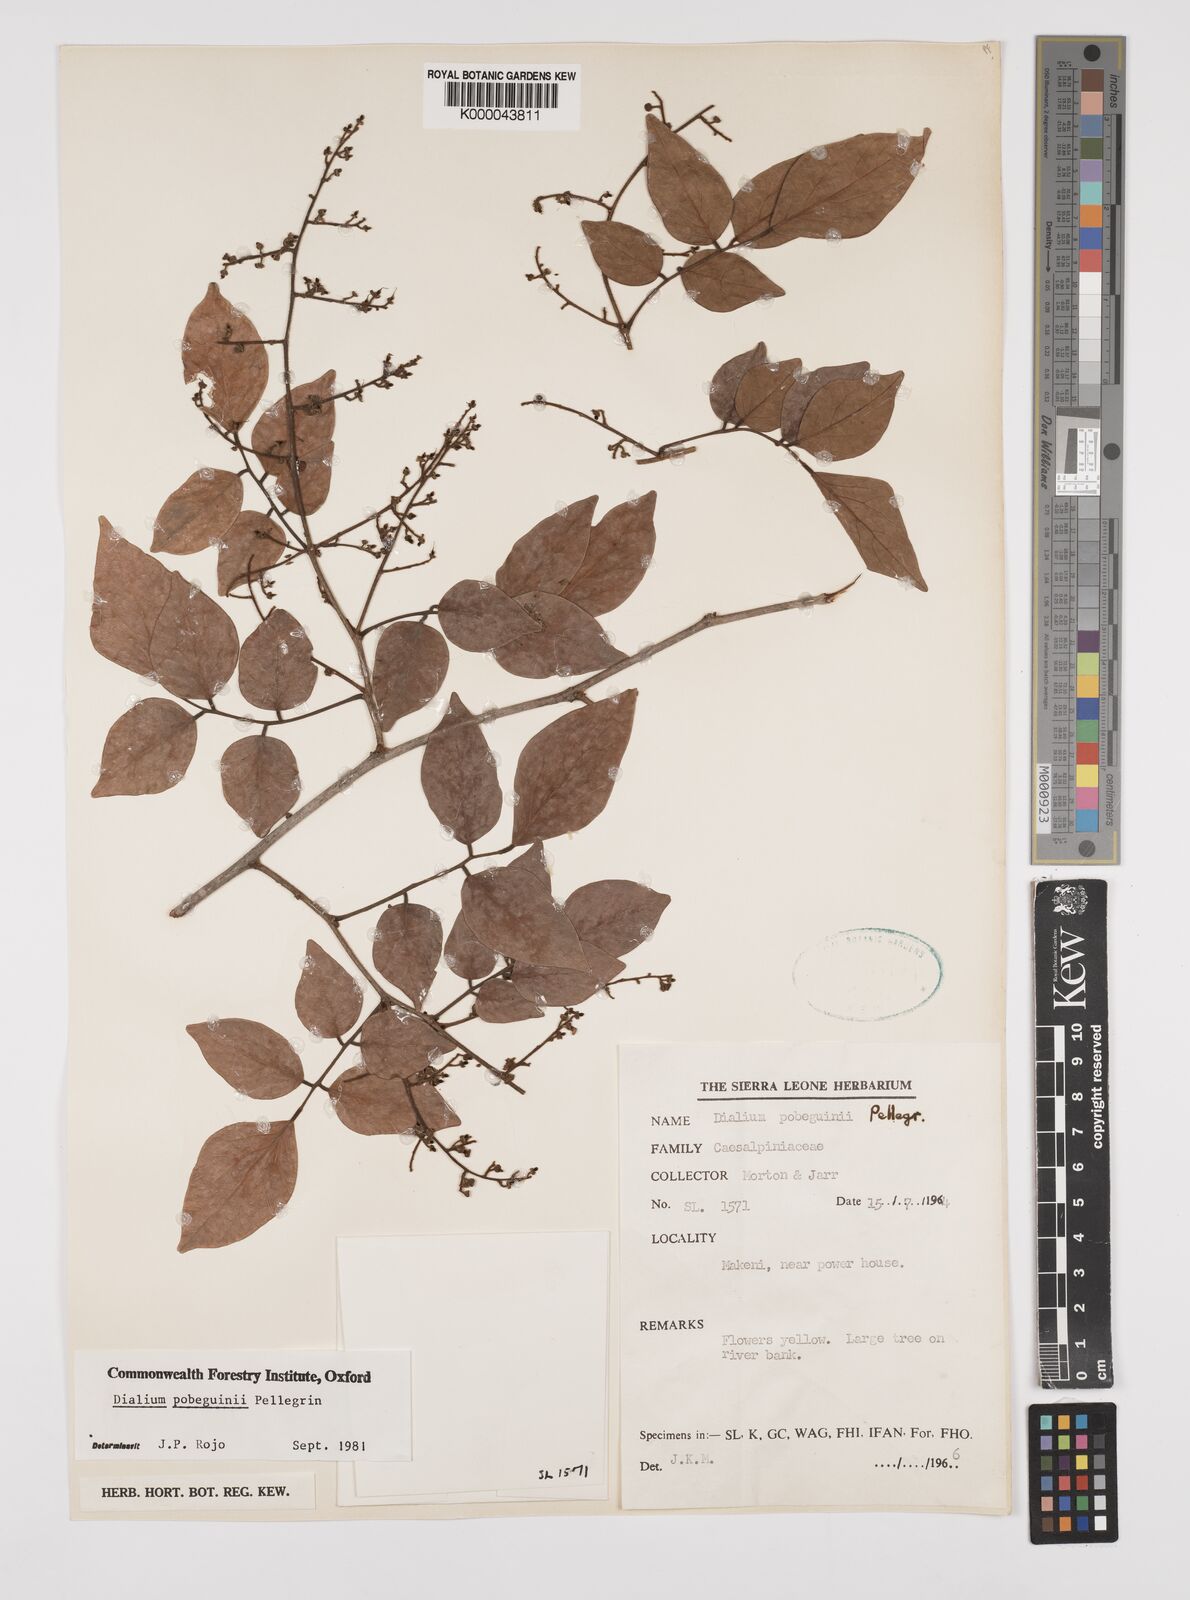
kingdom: Plantae
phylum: Tracheophyta
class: Magnoliopsida
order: Fabales
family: Fabaceae
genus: Dialium
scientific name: Dialium
